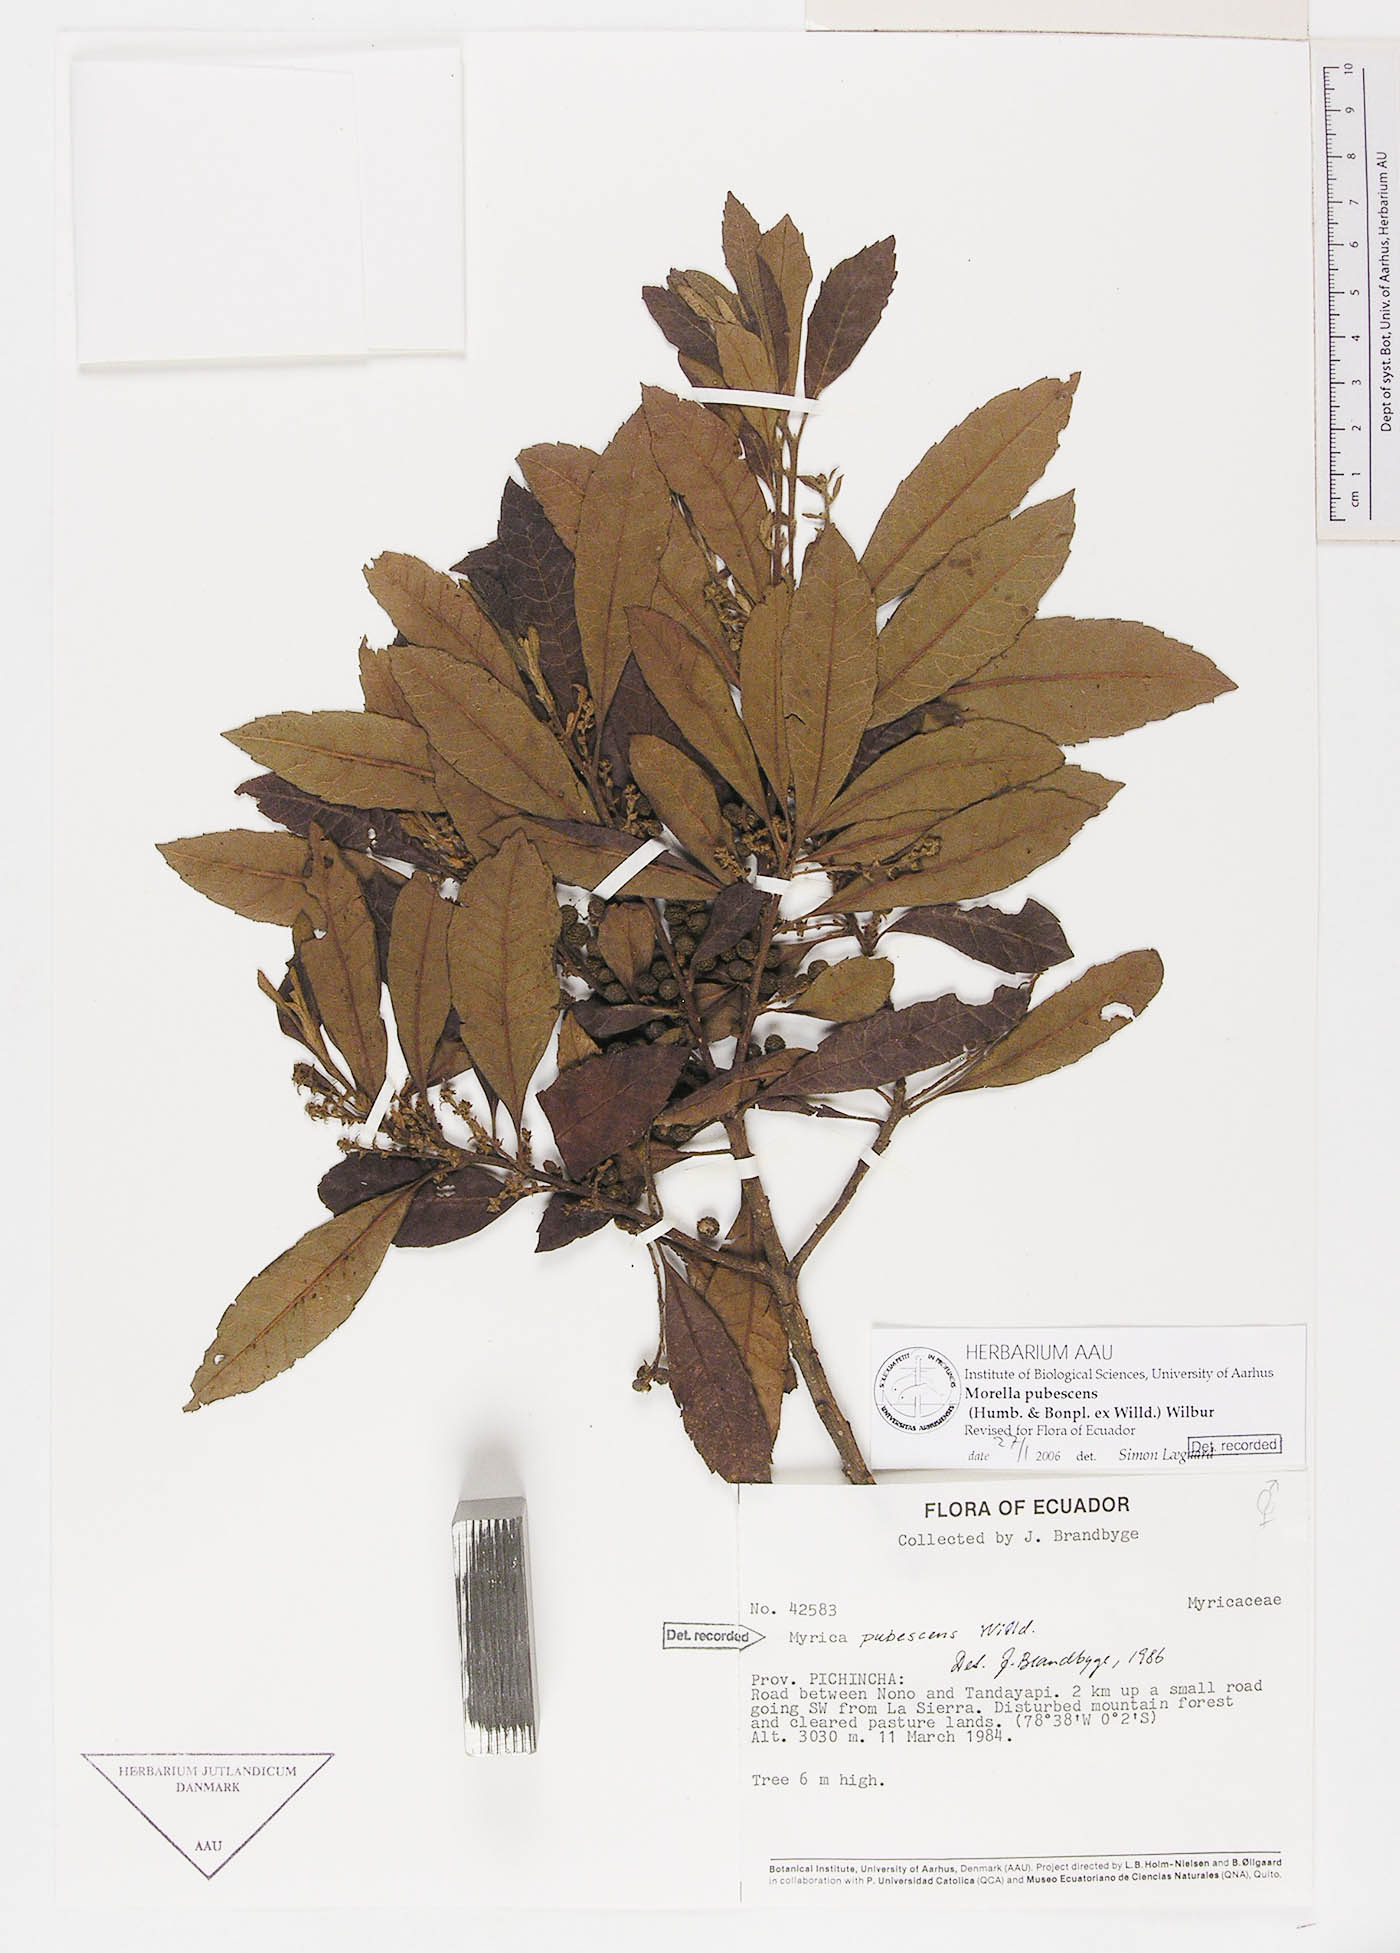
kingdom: Plantae
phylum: Tracheophyta
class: Magnoliopsida
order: Fagales
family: Myricaceae
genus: Morella
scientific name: Morella pubescens
